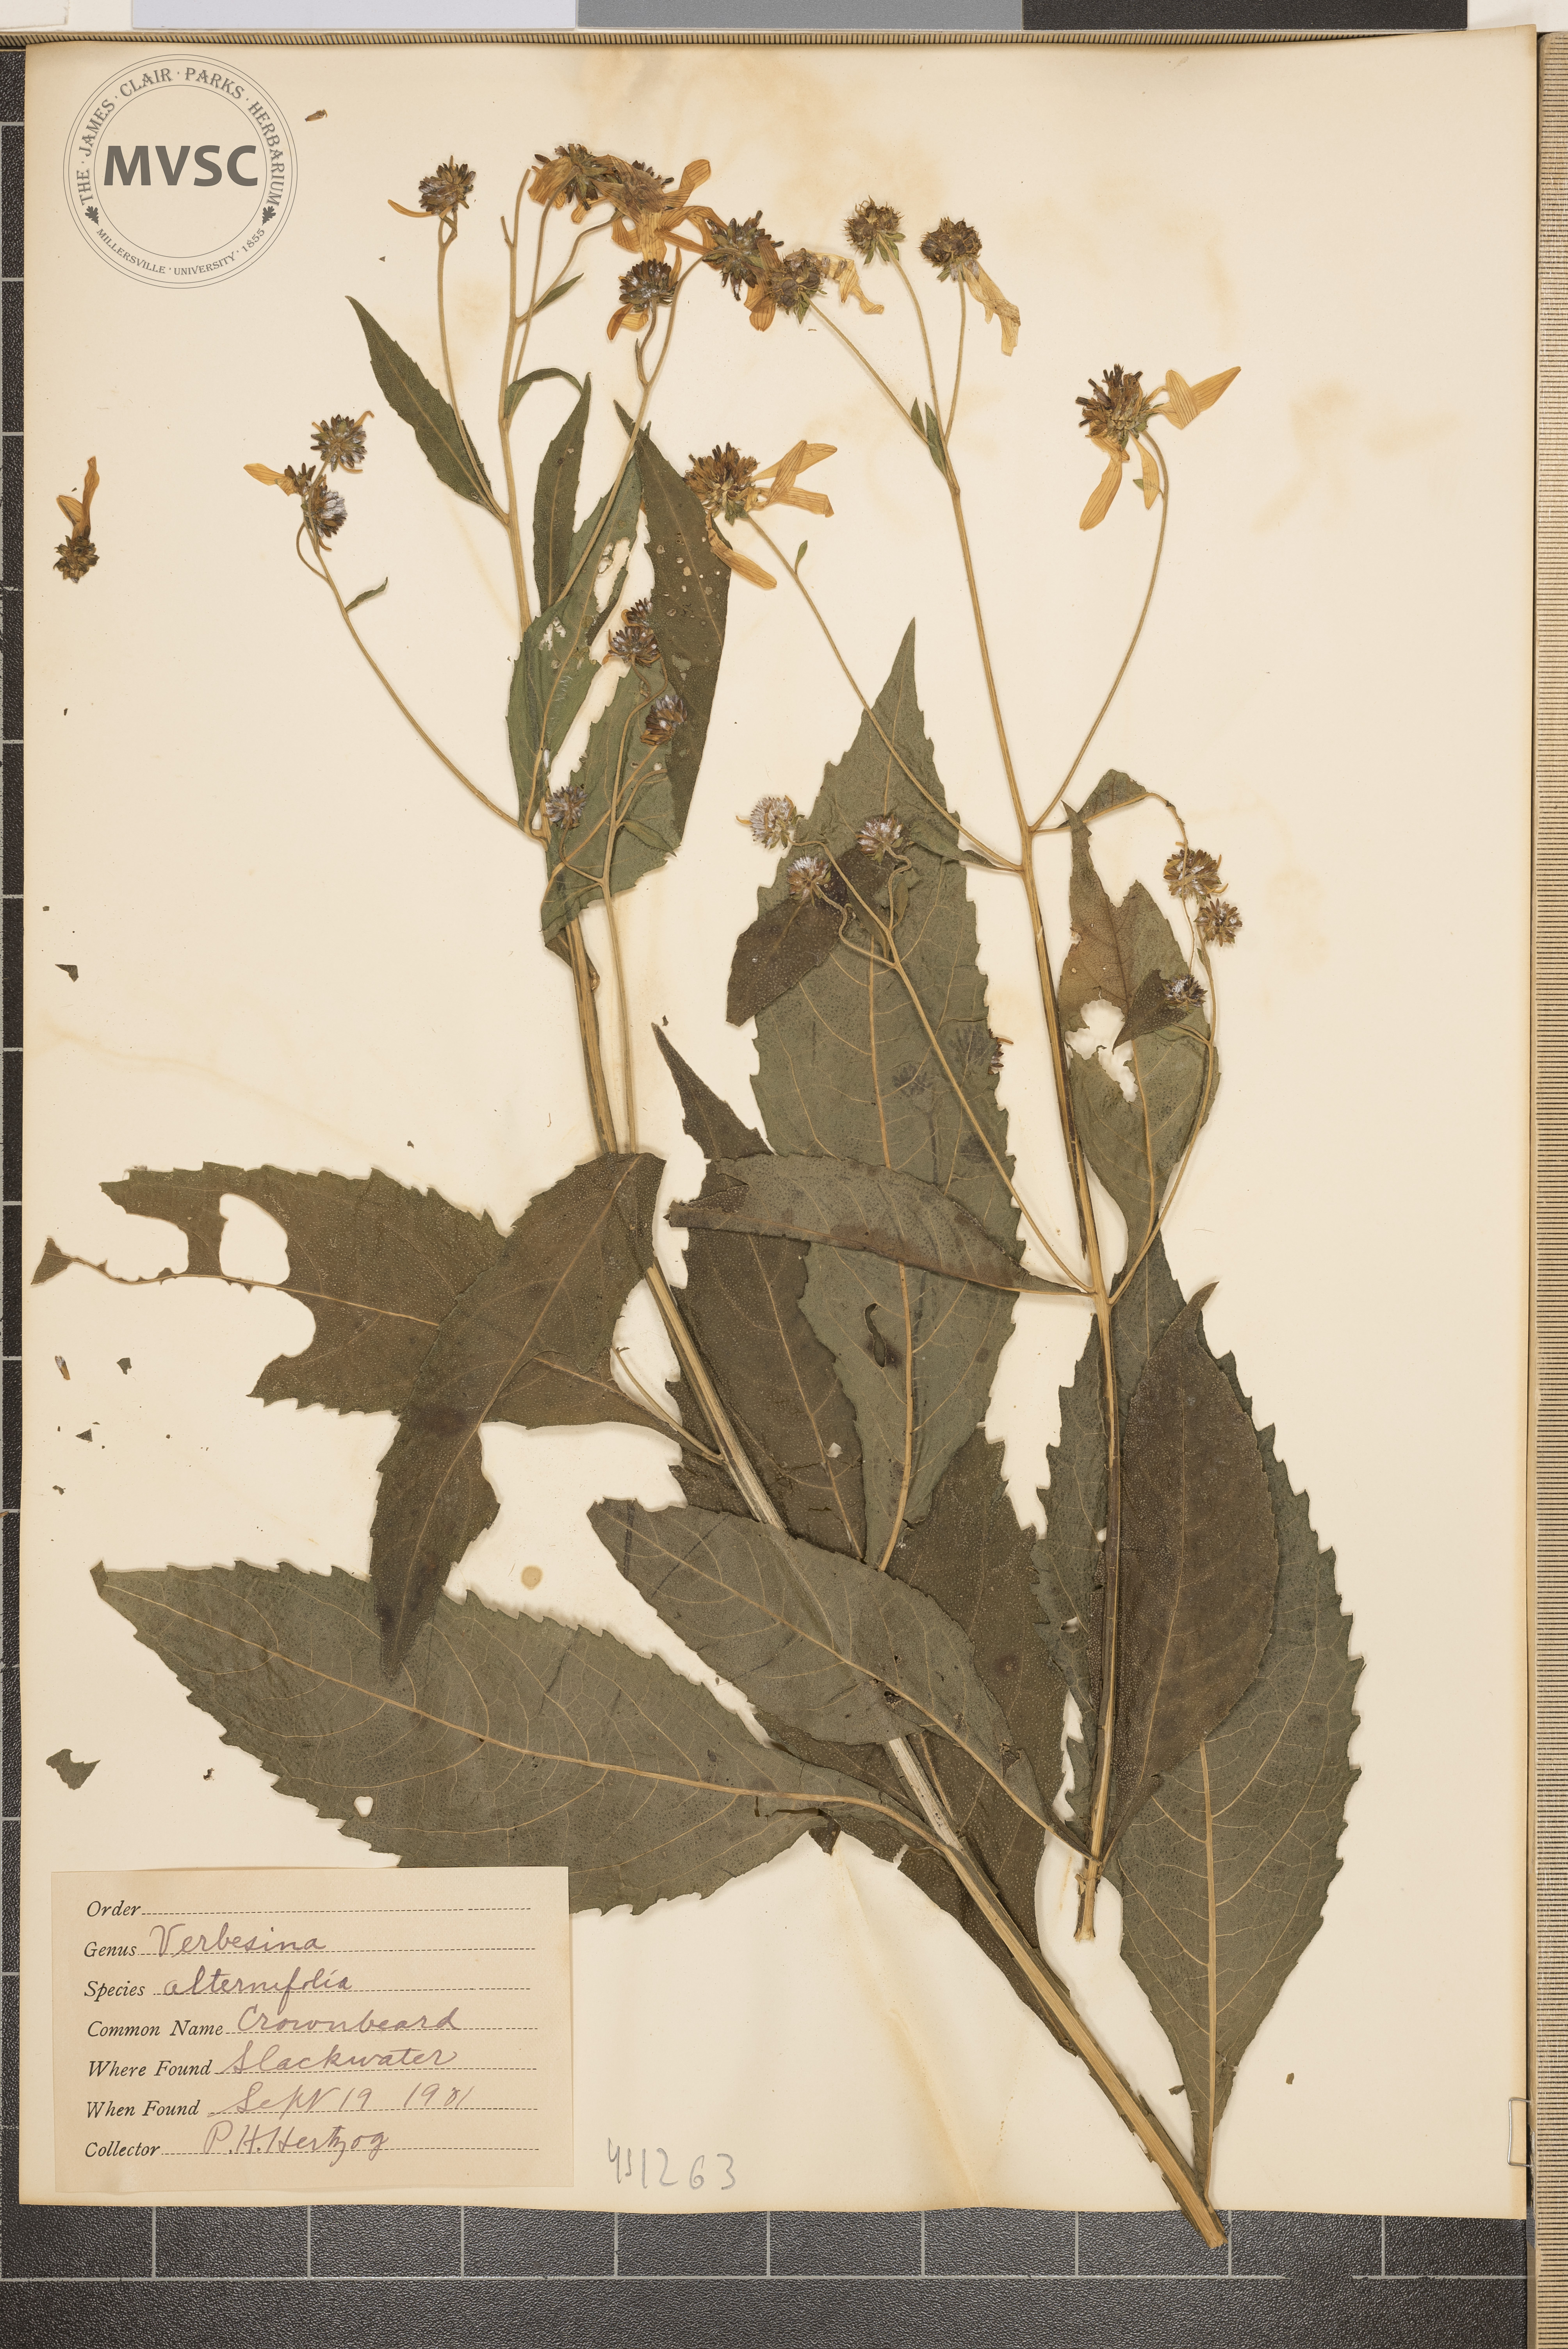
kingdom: Plantae
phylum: Tracheophyta
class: Magnoliopsida
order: Asterales
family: Asteraceae
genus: Verbesina
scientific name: Verbesina alternifolia
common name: Crownbeard
